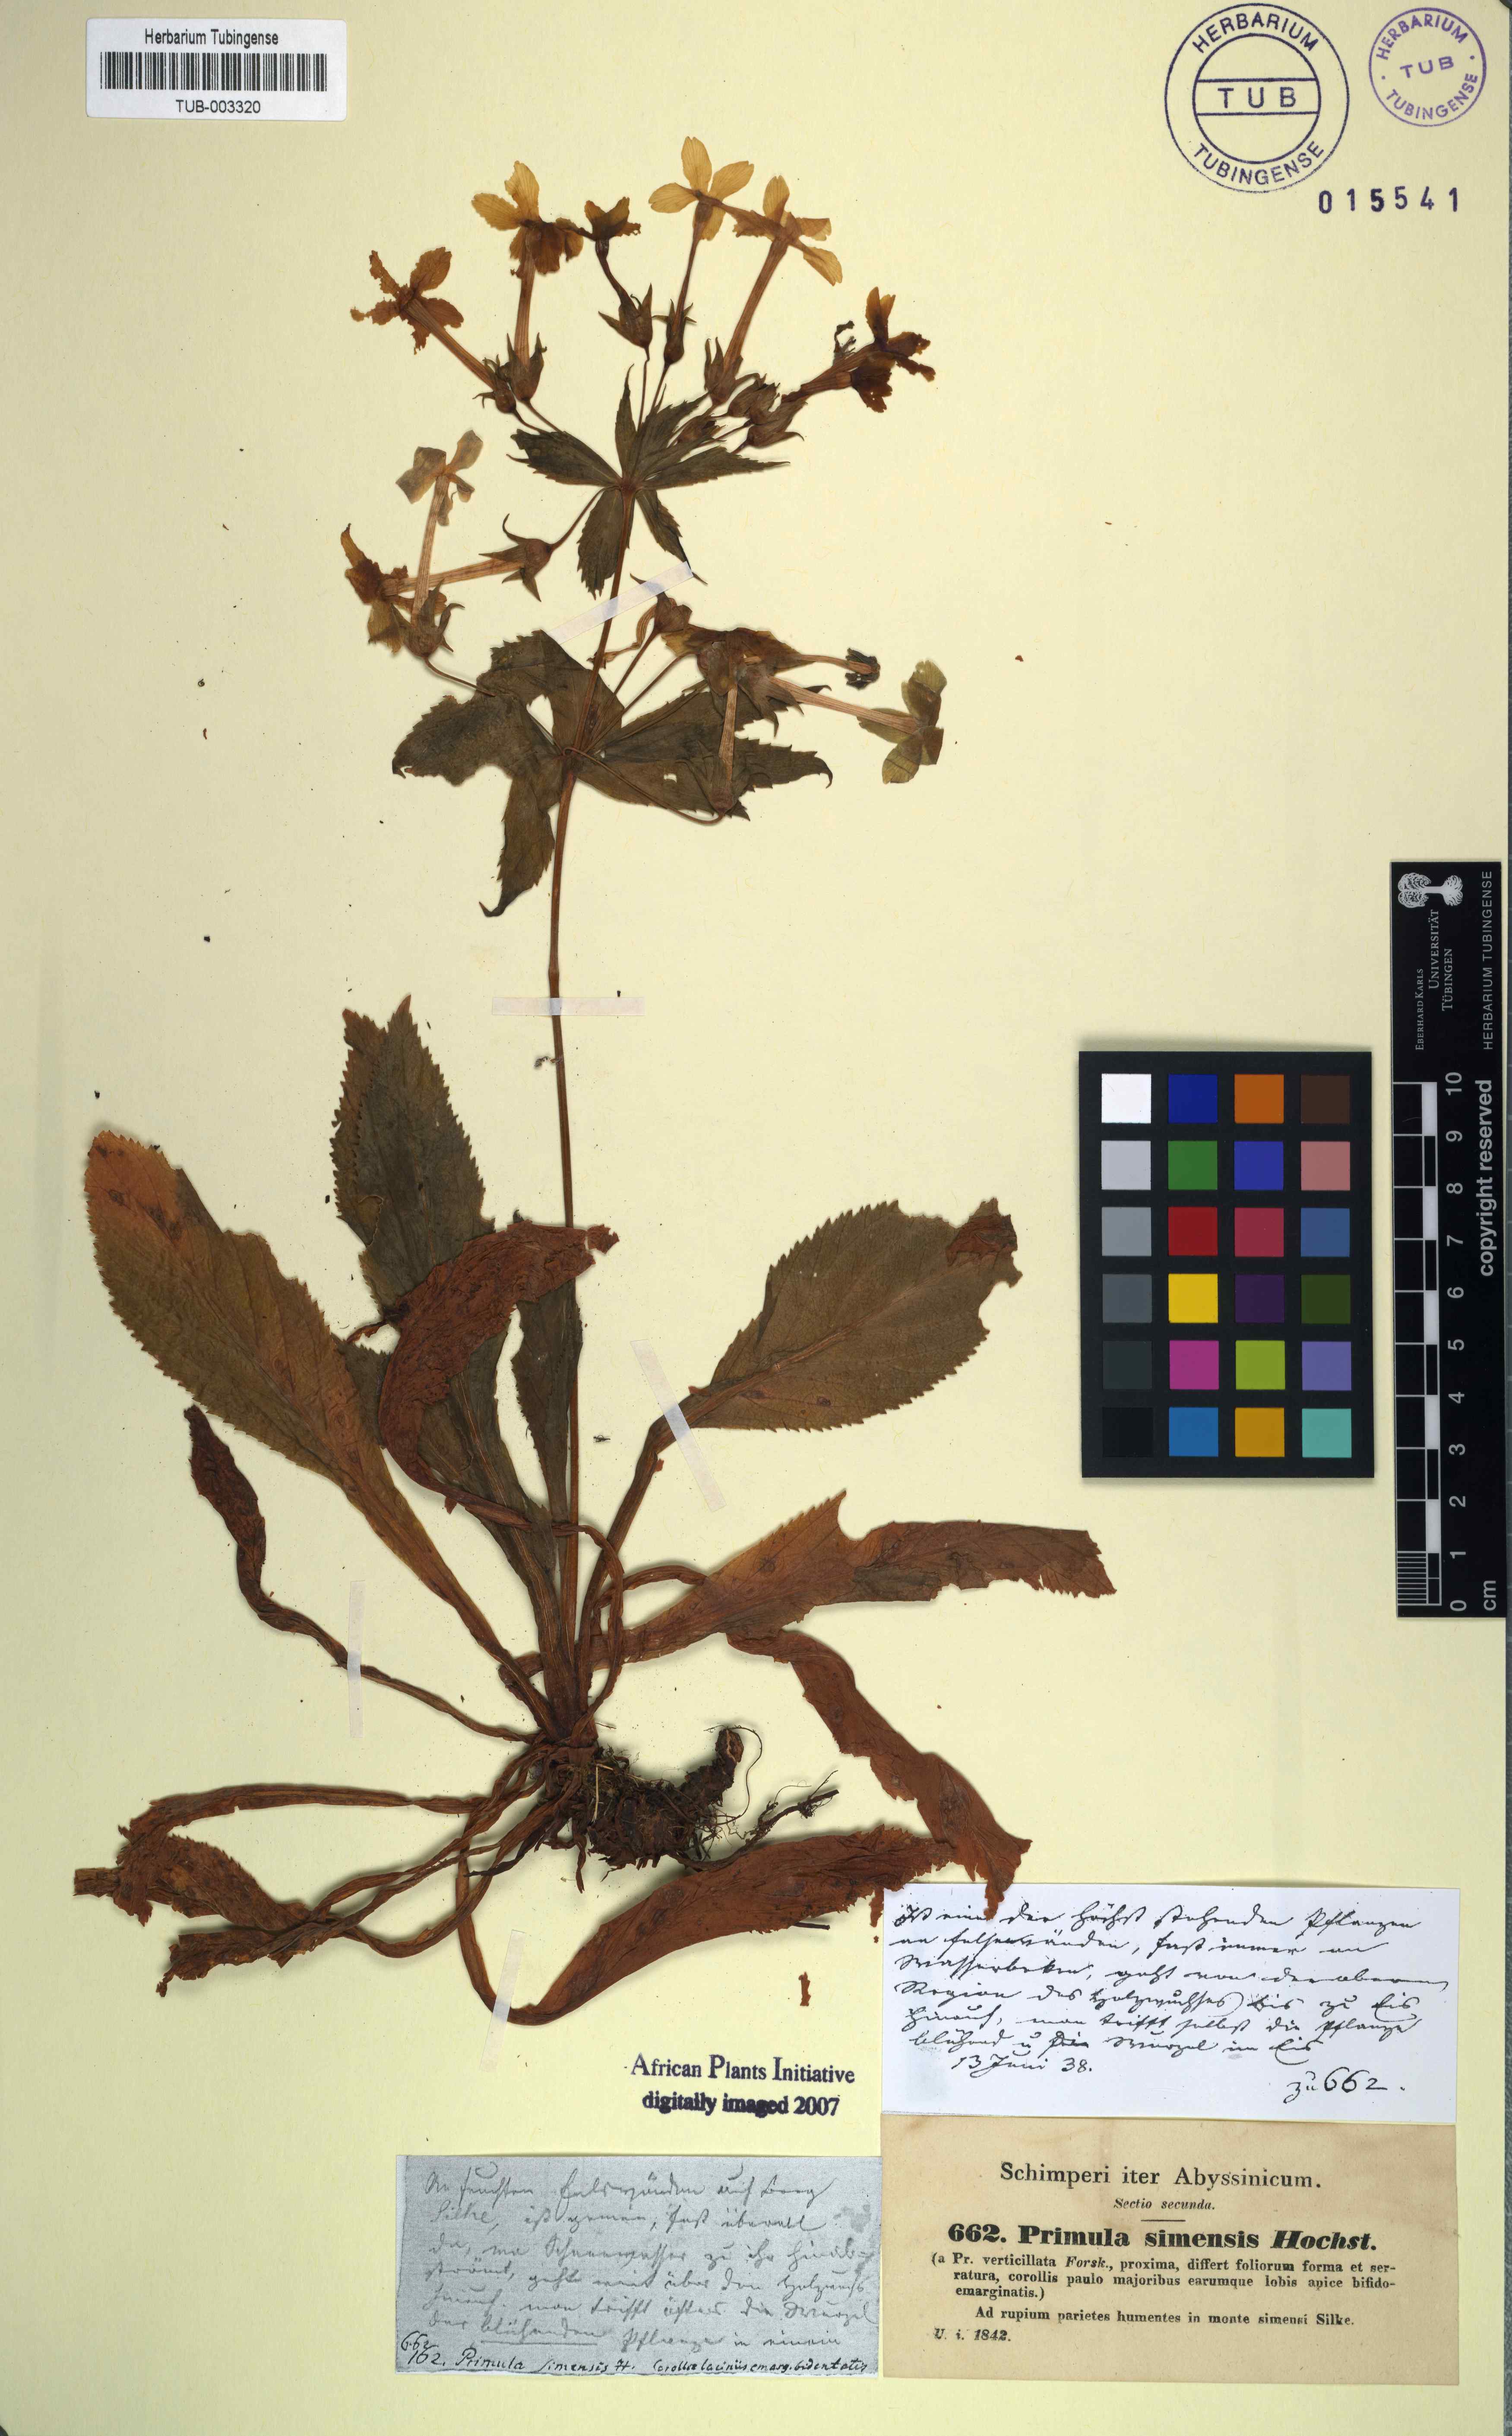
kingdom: Plantae
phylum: Tracheophyta
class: Magnoliopsida
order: Ericales
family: Primulaceae
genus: Evotrochis
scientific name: Evotrochis verticillata
